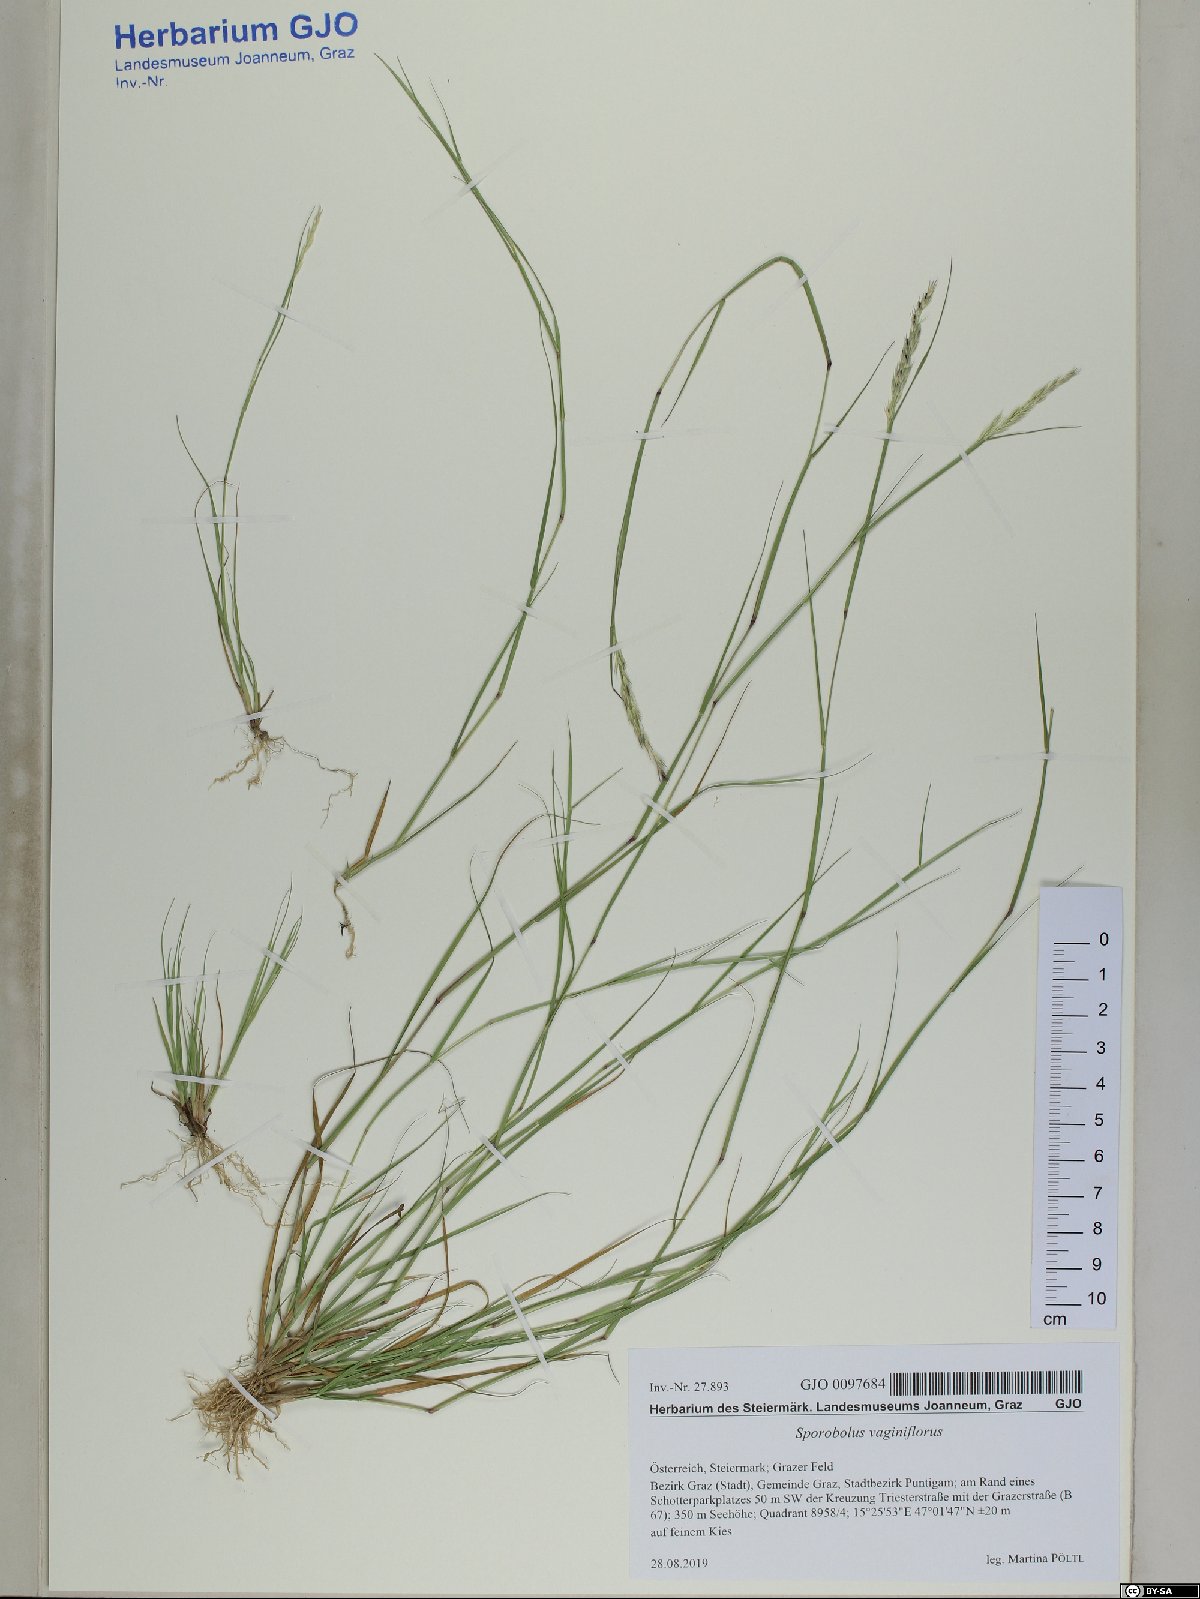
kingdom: Plantae
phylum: Tracheophyta
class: Liliopsida
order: Poales
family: Poaceae
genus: Sporobolus
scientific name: Sporobolus vaginiflorus
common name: Poverty dropseed
